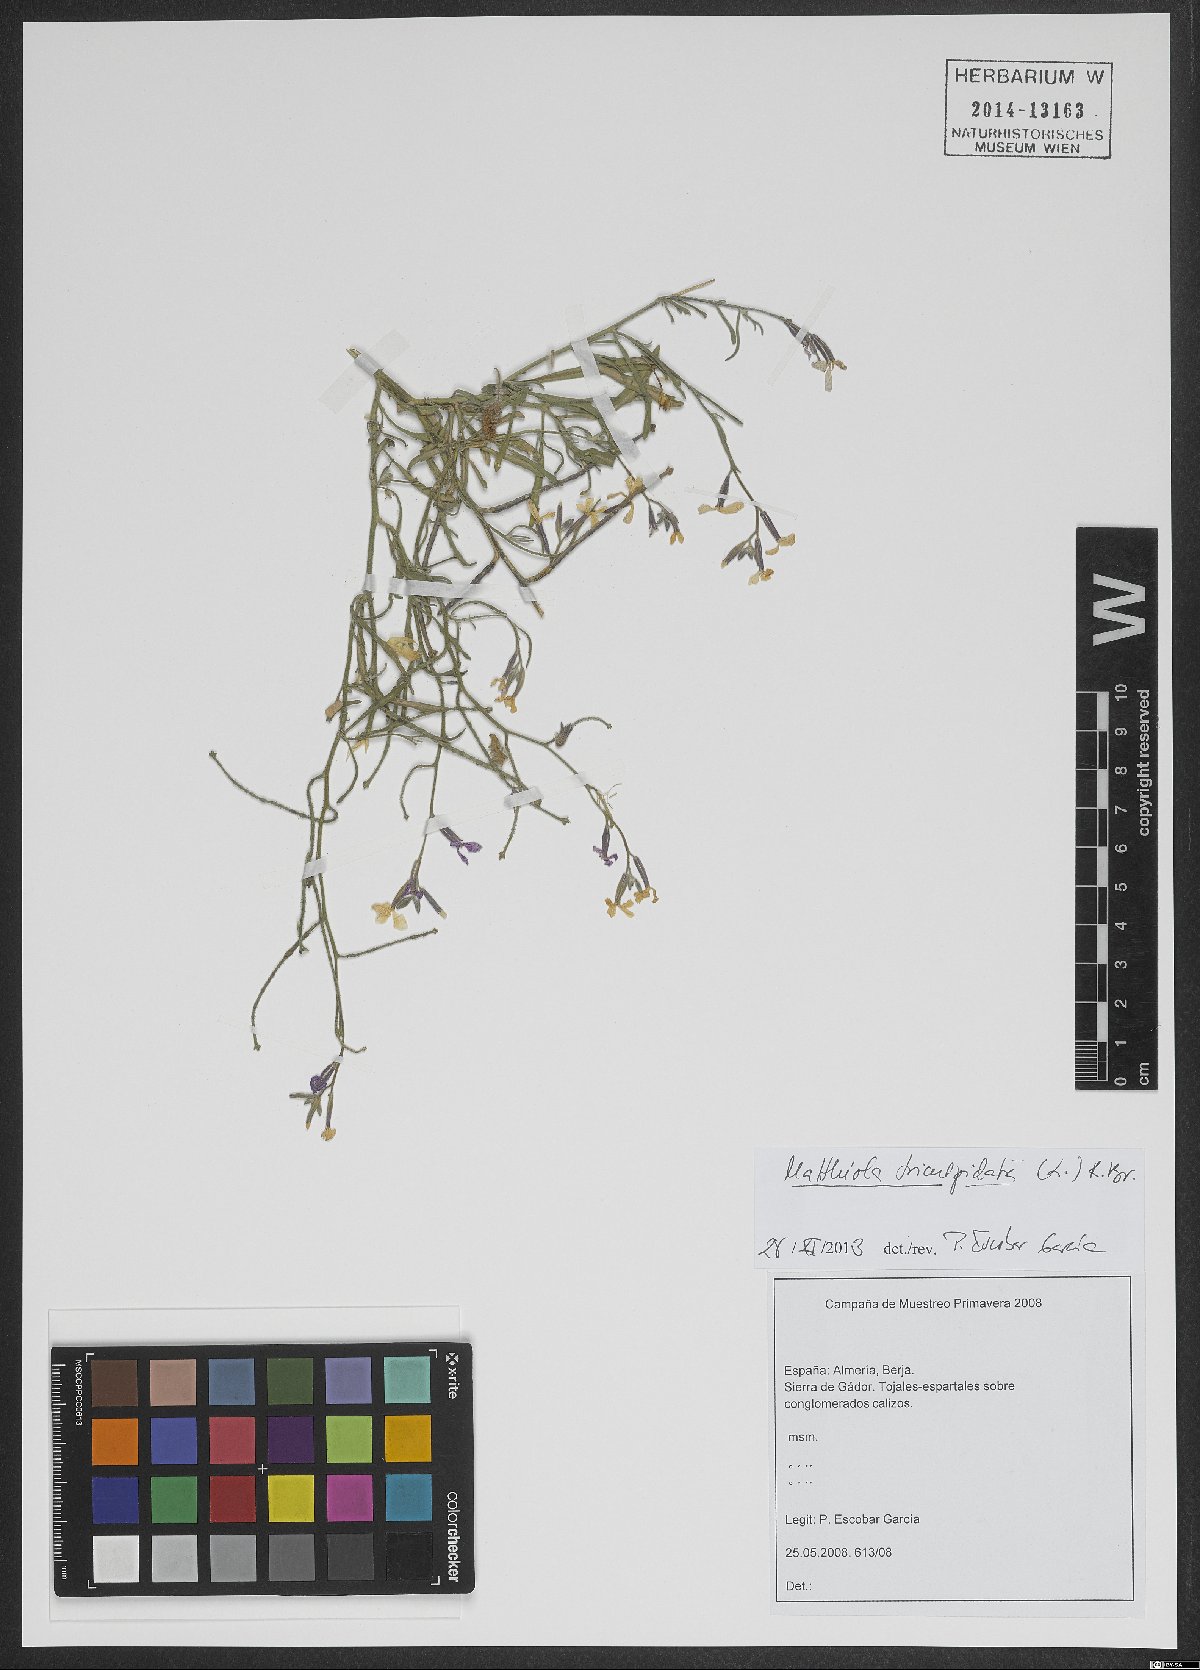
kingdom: Plantae
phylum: Tracheophyta
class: Magnoliopsida
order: Brassicales
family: Brassicaceae
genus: Matthiola
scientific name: Matthiola tricuspidata
